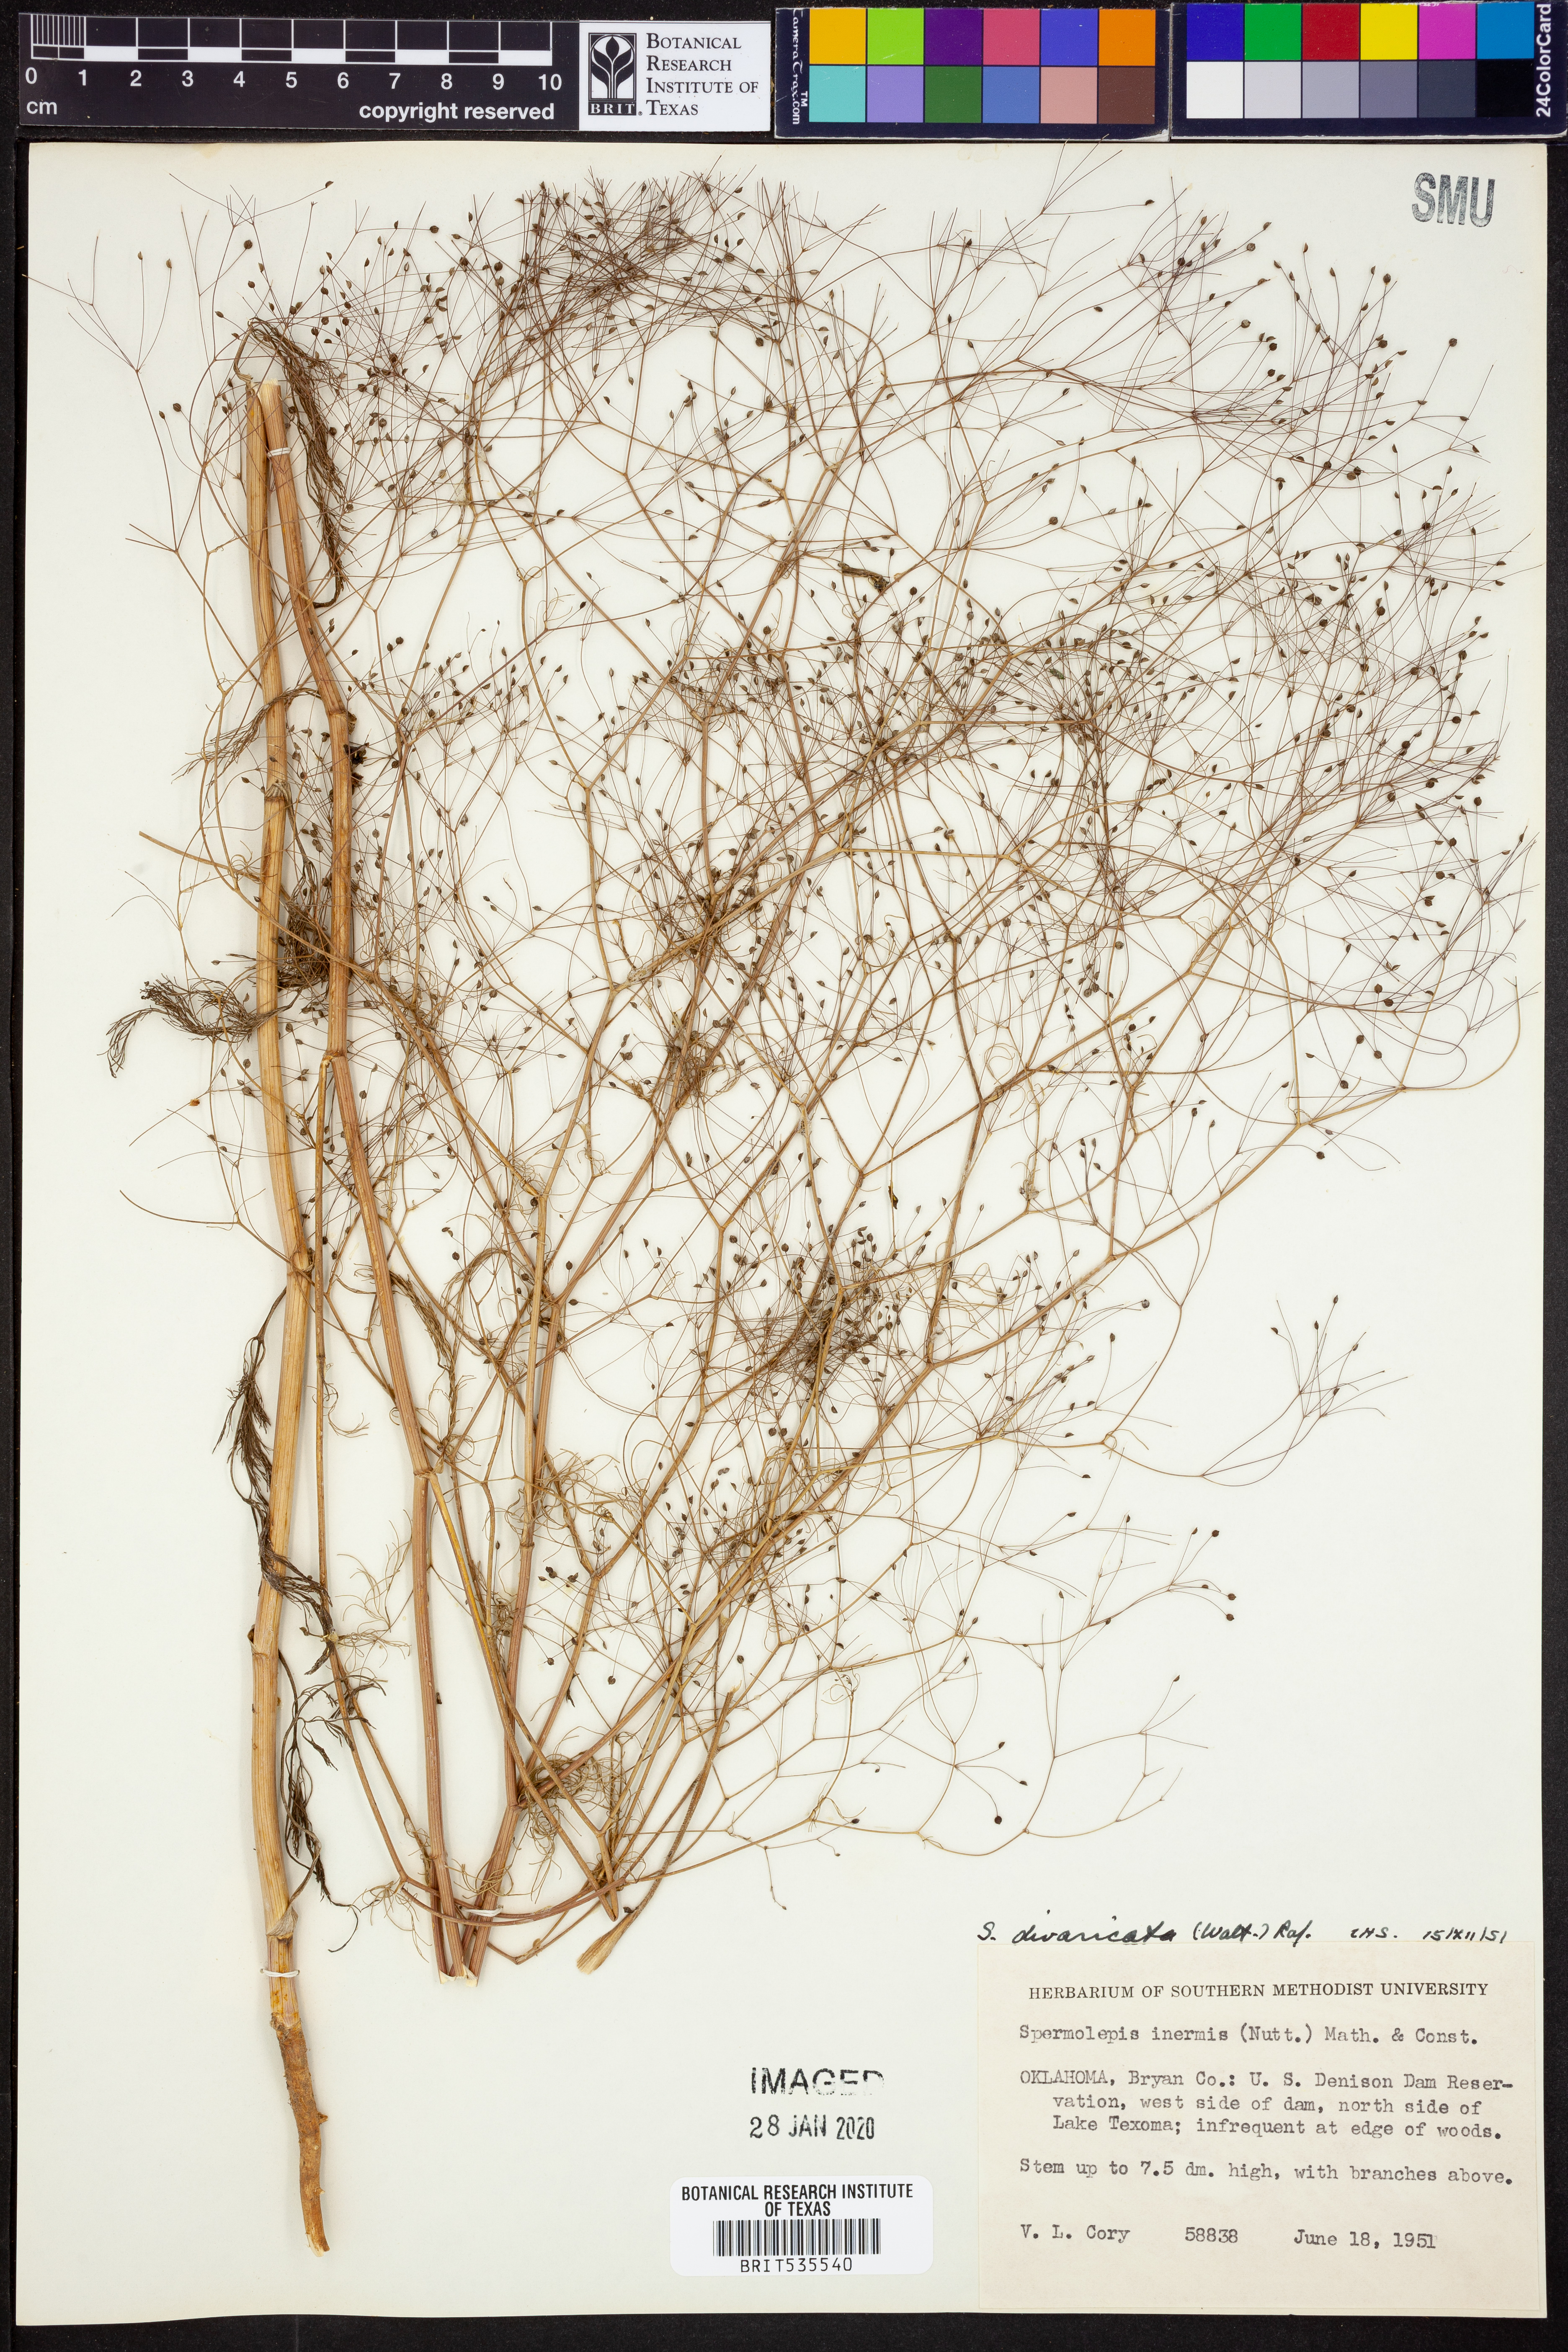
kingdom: Plantae
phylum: Tracheophyta
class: Magnoliopsida
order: Apiales
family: Apiaceae
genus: Spermolepis
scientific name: Spermolepis divaricata
